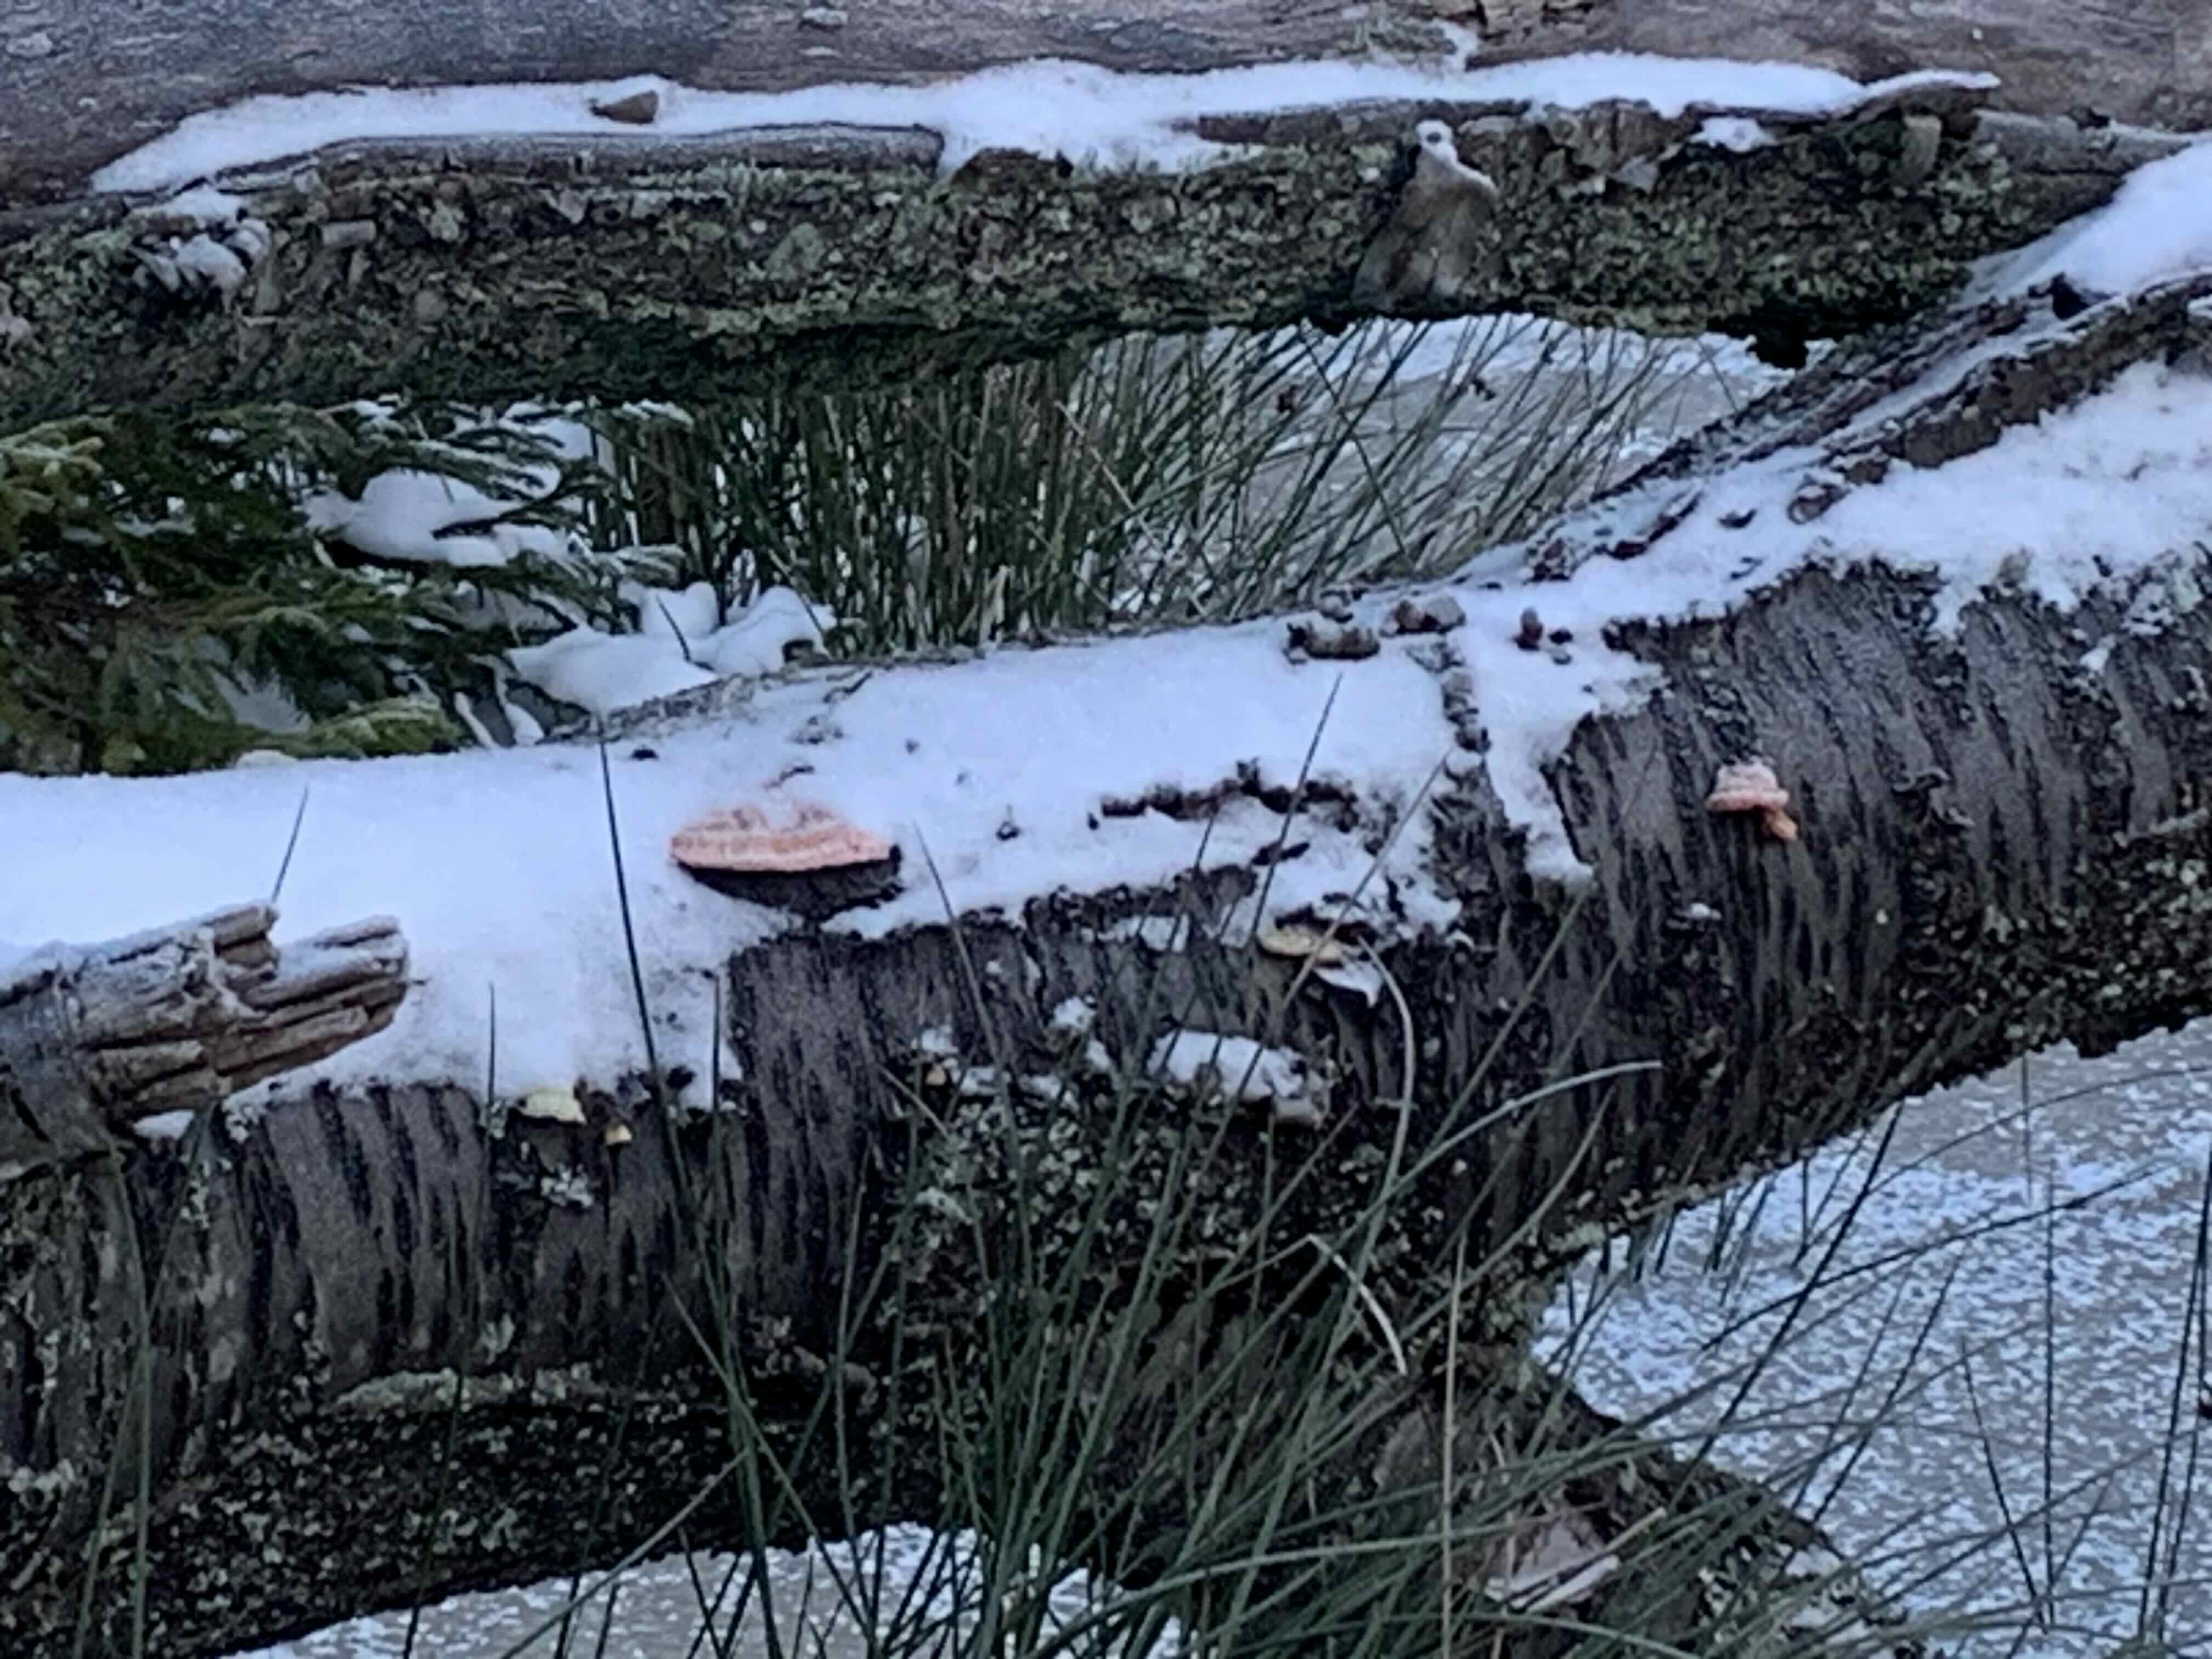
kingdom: Fungi
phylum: Basidiomycota
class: Agaricomycetes
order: Polyporales
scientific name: Polyporales
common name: poresvampordenen
